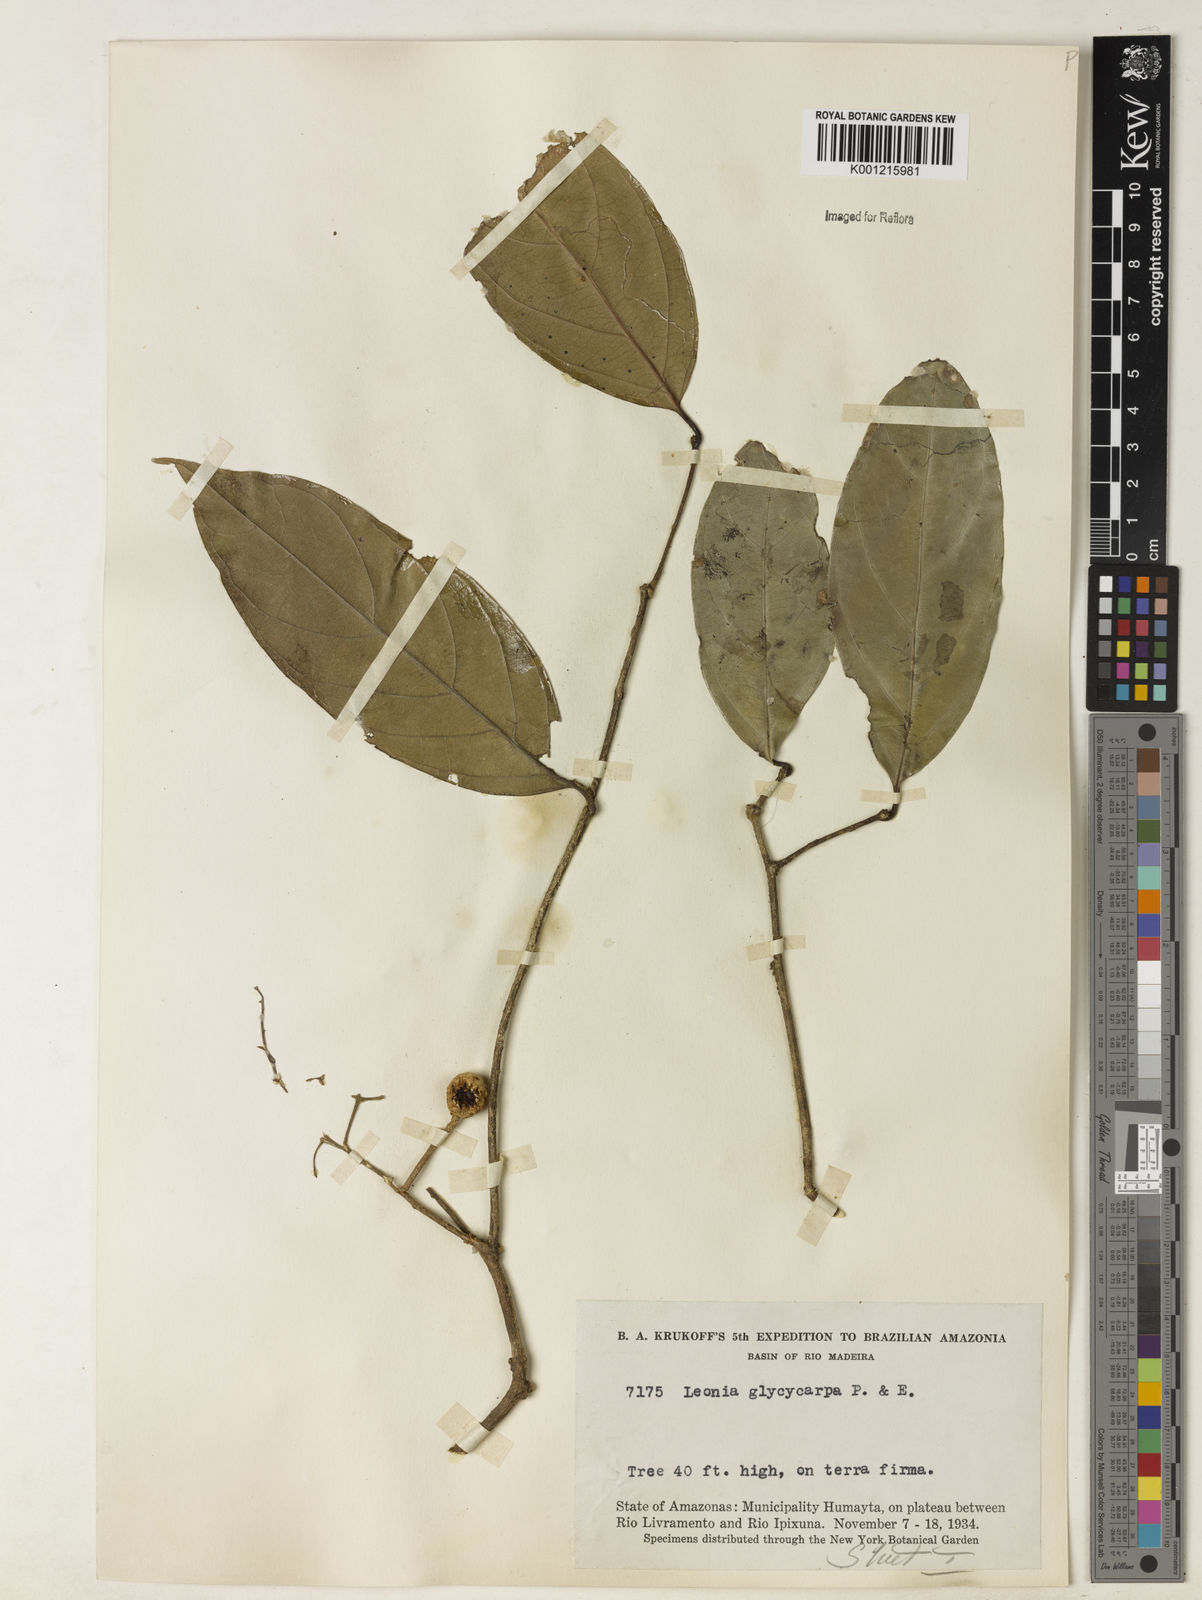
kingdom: Plantae
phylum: Tracheophyta
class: Magnoliopsida
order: Malpighiales
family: Violaceae
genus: Leonia
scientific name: Leonia glycycarpa
